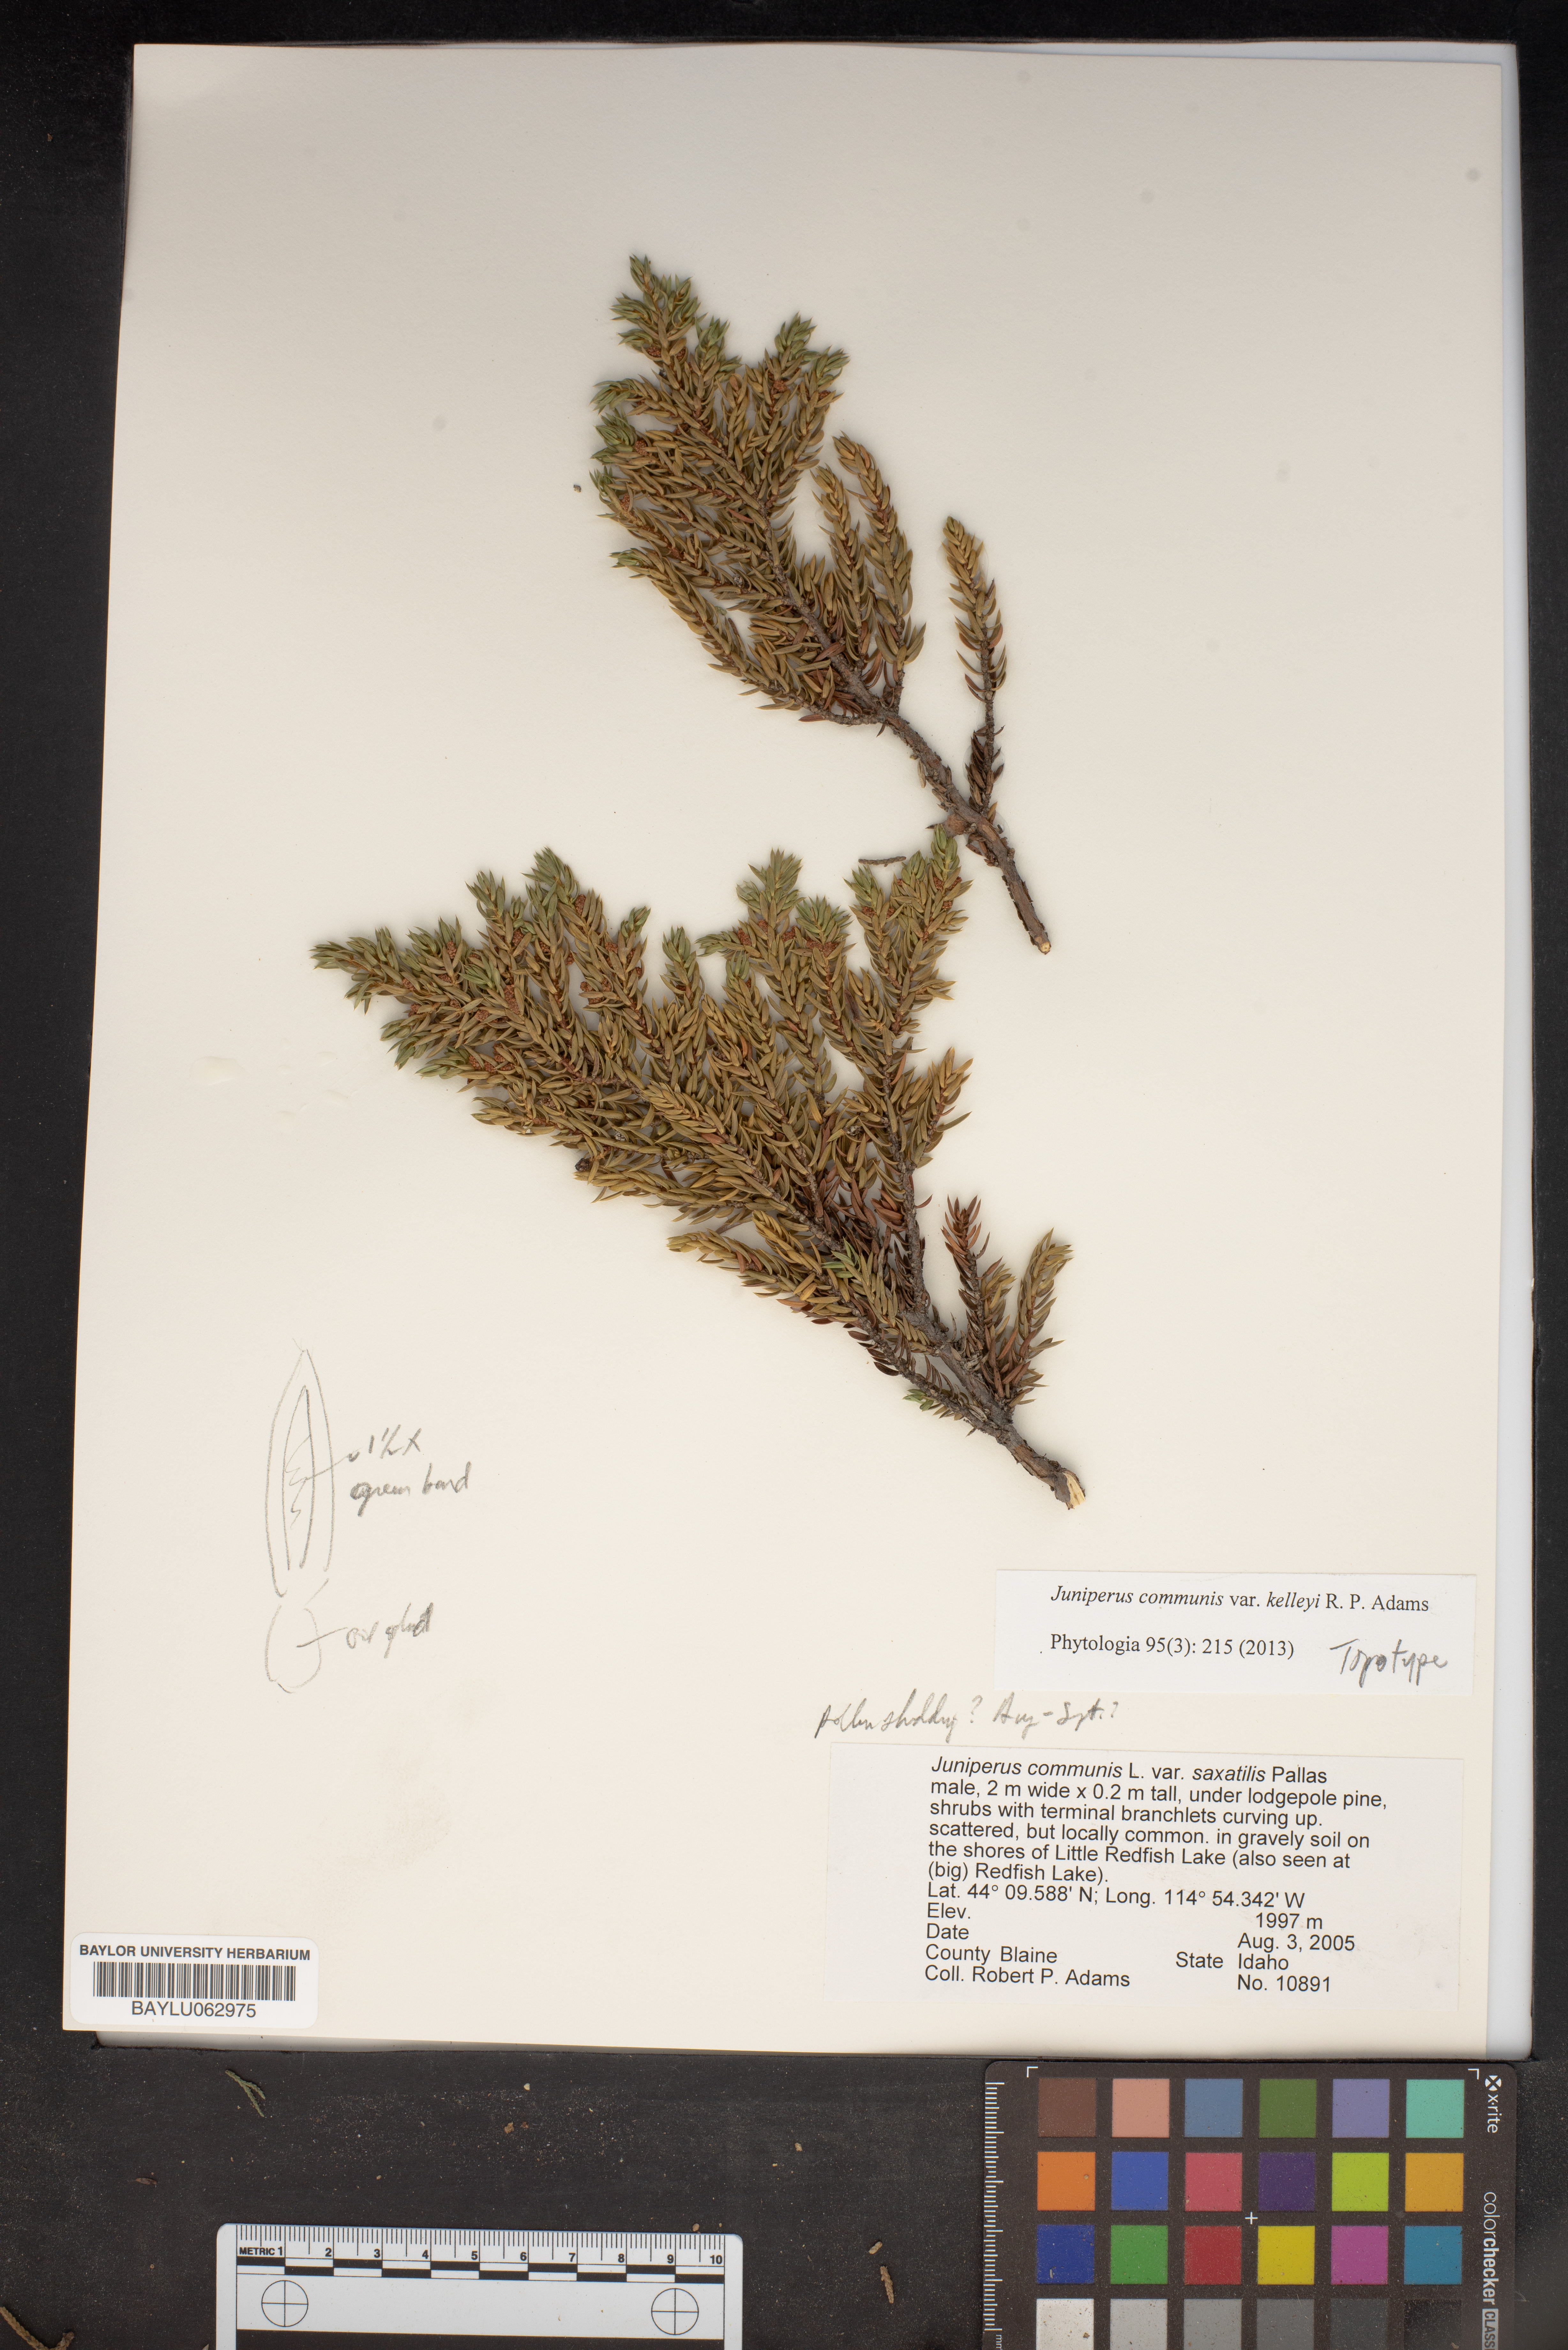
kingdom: Plantae
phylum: Tracheophyta
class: Pinopsida
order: Pinales
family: Cupressaceae
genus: Juniperus
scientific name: Juniperus communis
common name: Common juniper
